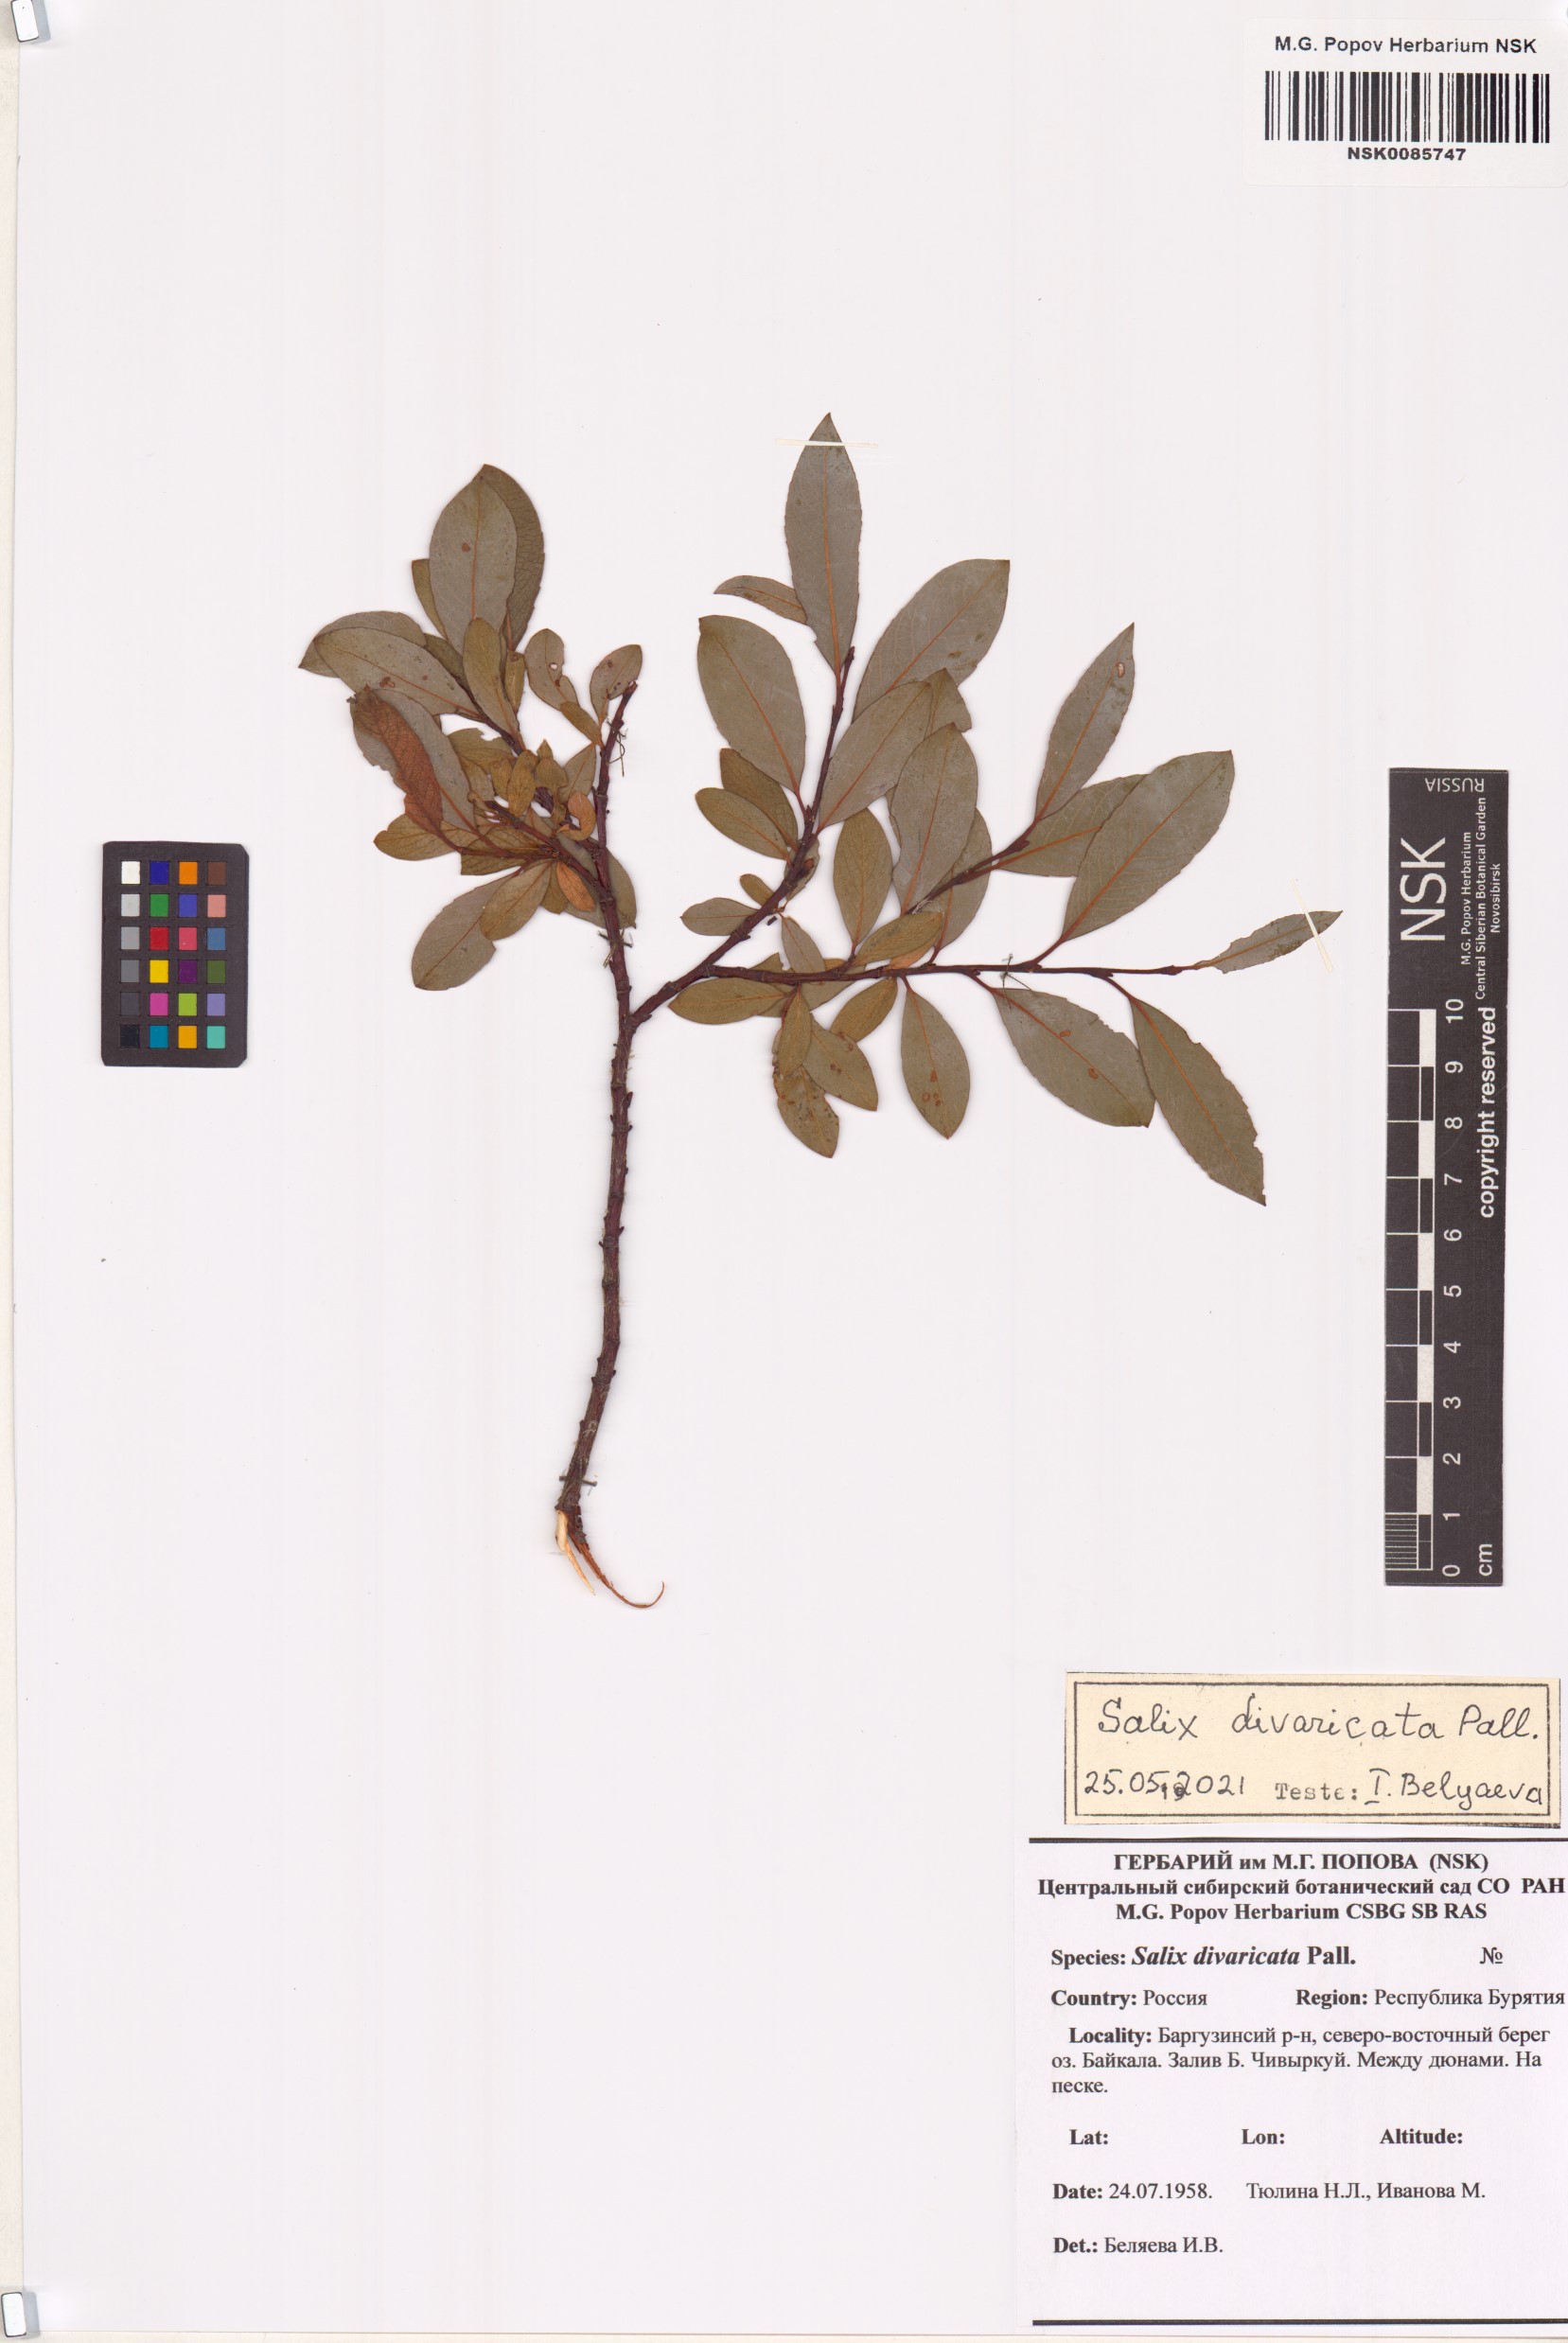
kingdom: Plantae
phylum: Tracheophyta
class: Magnoliopsida
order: Malpighiales
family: Salicaceae
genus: Salix
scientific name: Salix divaricata
